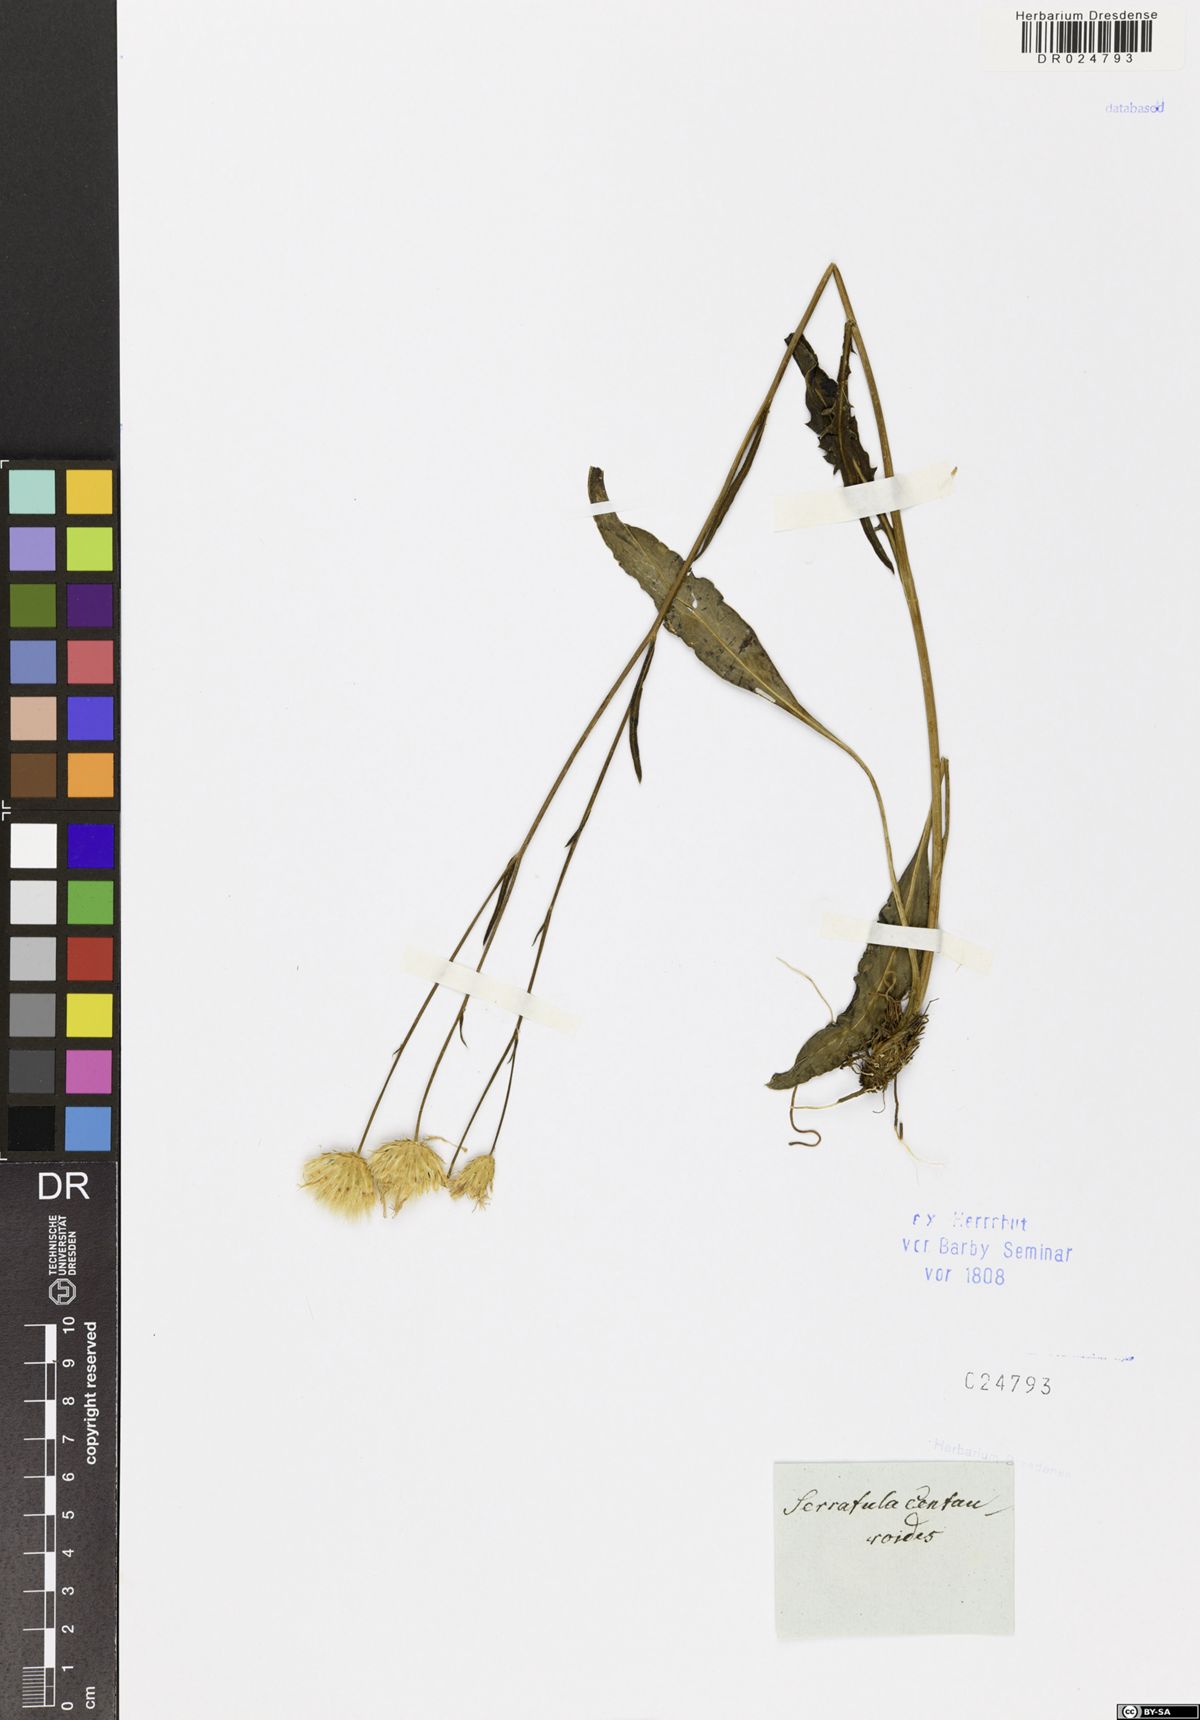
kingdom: Plantae
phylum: Tracheophyta
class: Magnoliopsida
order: Asterales
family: Asteraceae
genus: Klasea
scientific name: Klasea centauroides
